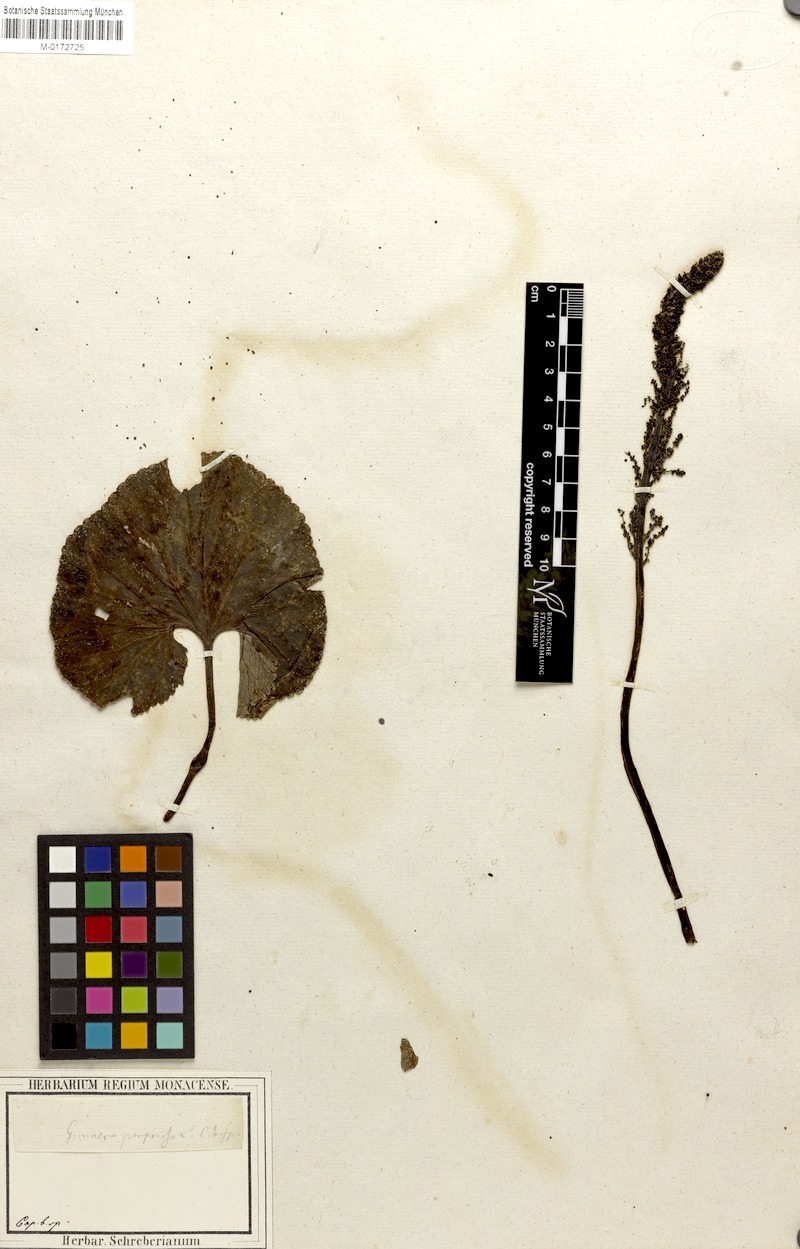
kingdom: Plantae
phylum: Tracheophyta
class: Magnoliopsida
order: Gunnerales
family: Gunneraceae
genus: Gunnera
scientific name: Gunnera perpensa
